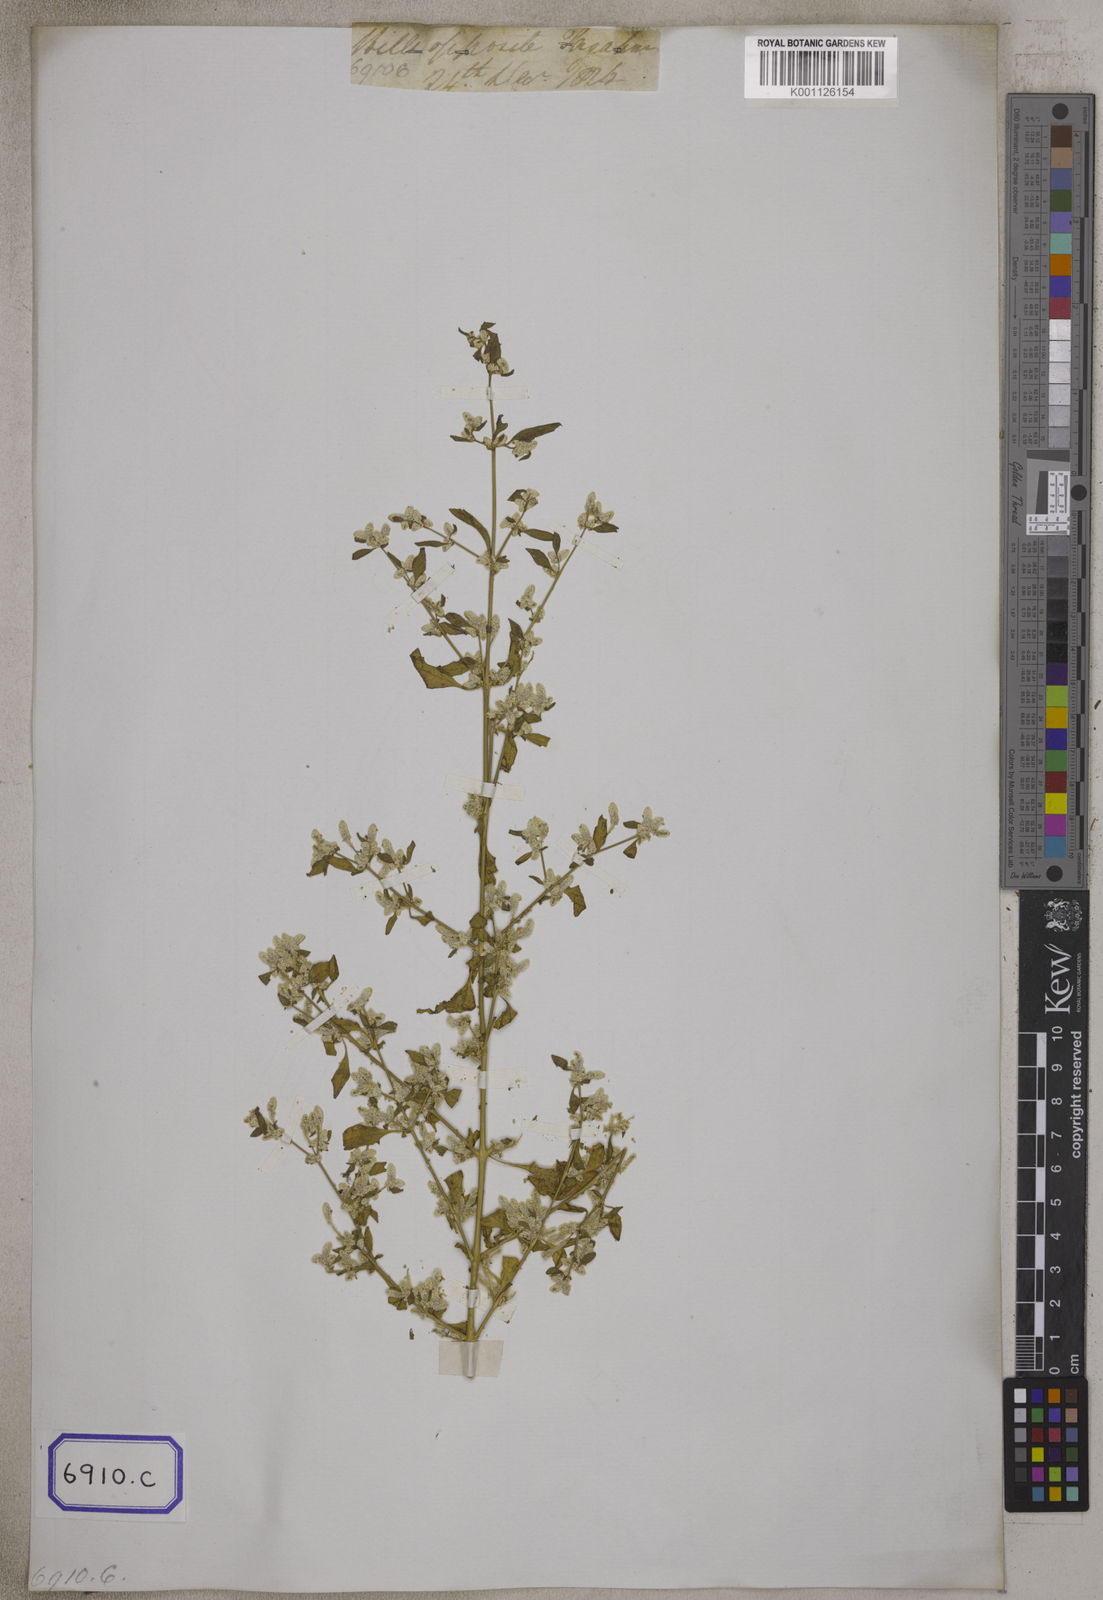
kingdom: Plantae
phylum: Tracheophyta
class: Magnoliopsida
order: Caryophyllales
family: Amaranthaceae
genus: Nothosaerva
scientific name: Nothosaerva brachiata
